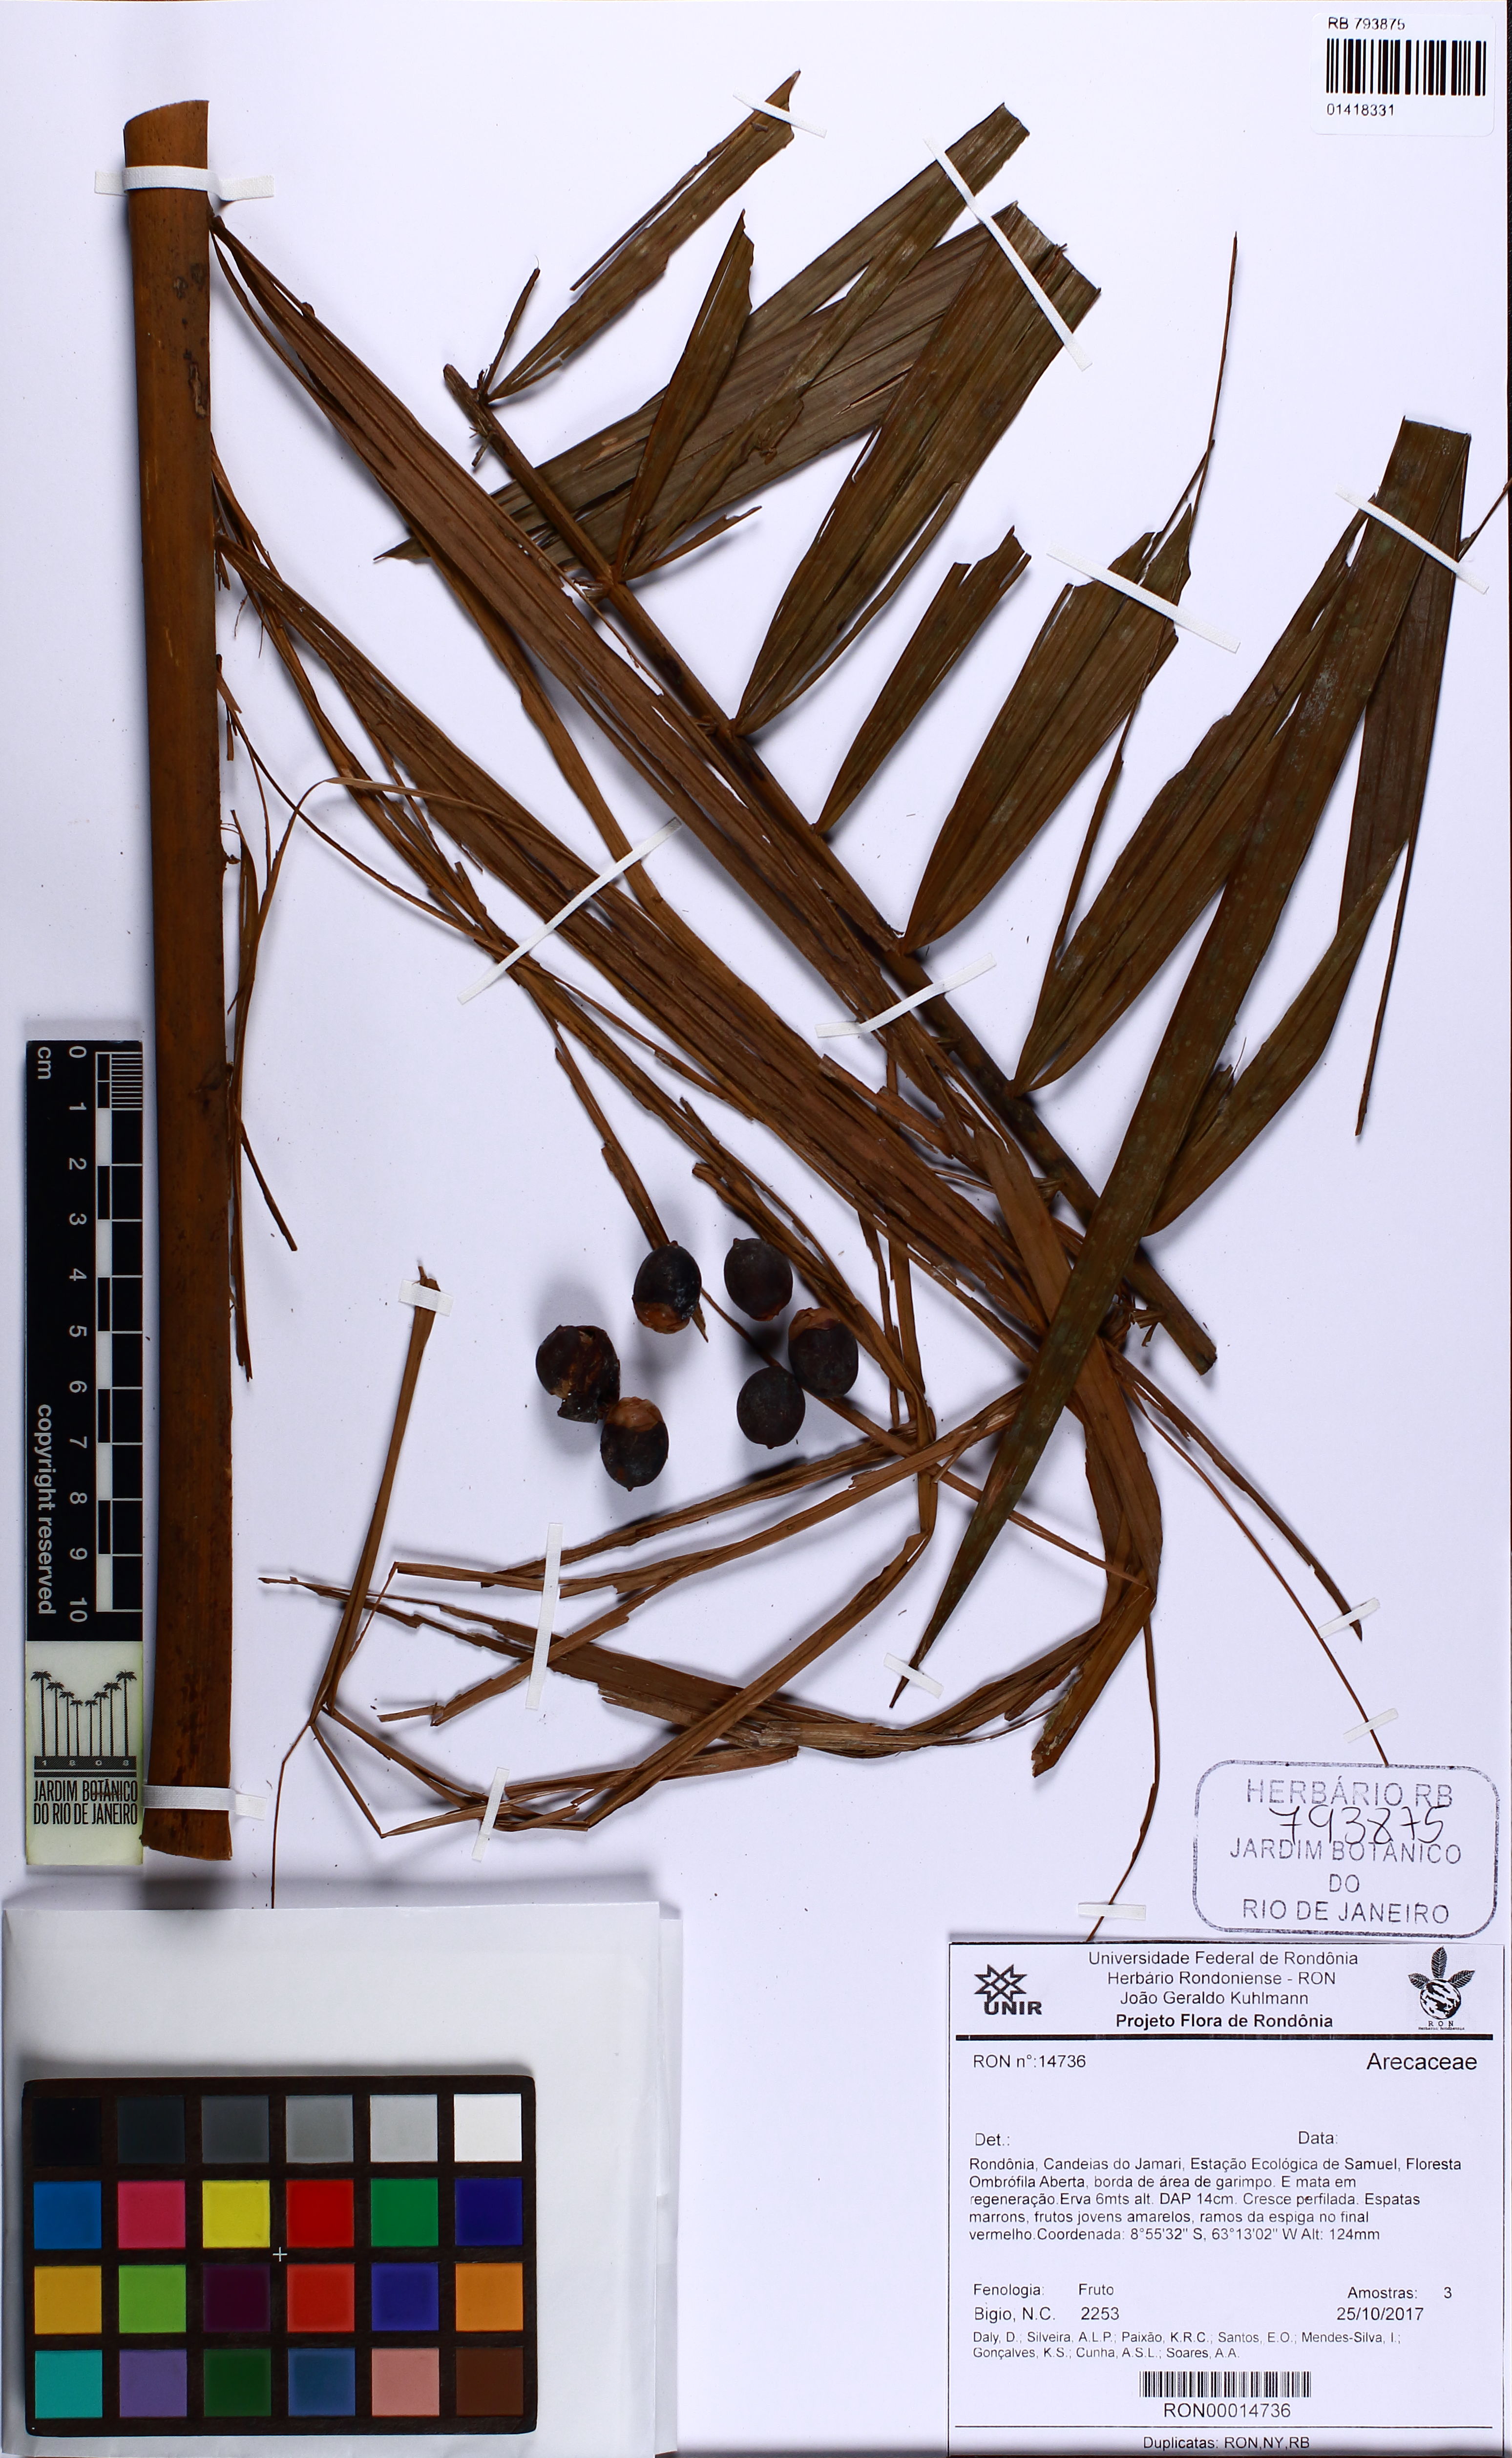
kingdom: Plantae
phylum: Tracheophyta
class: Liliopsida
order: Arecales
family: Arecaceae
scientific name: Arecaceae
